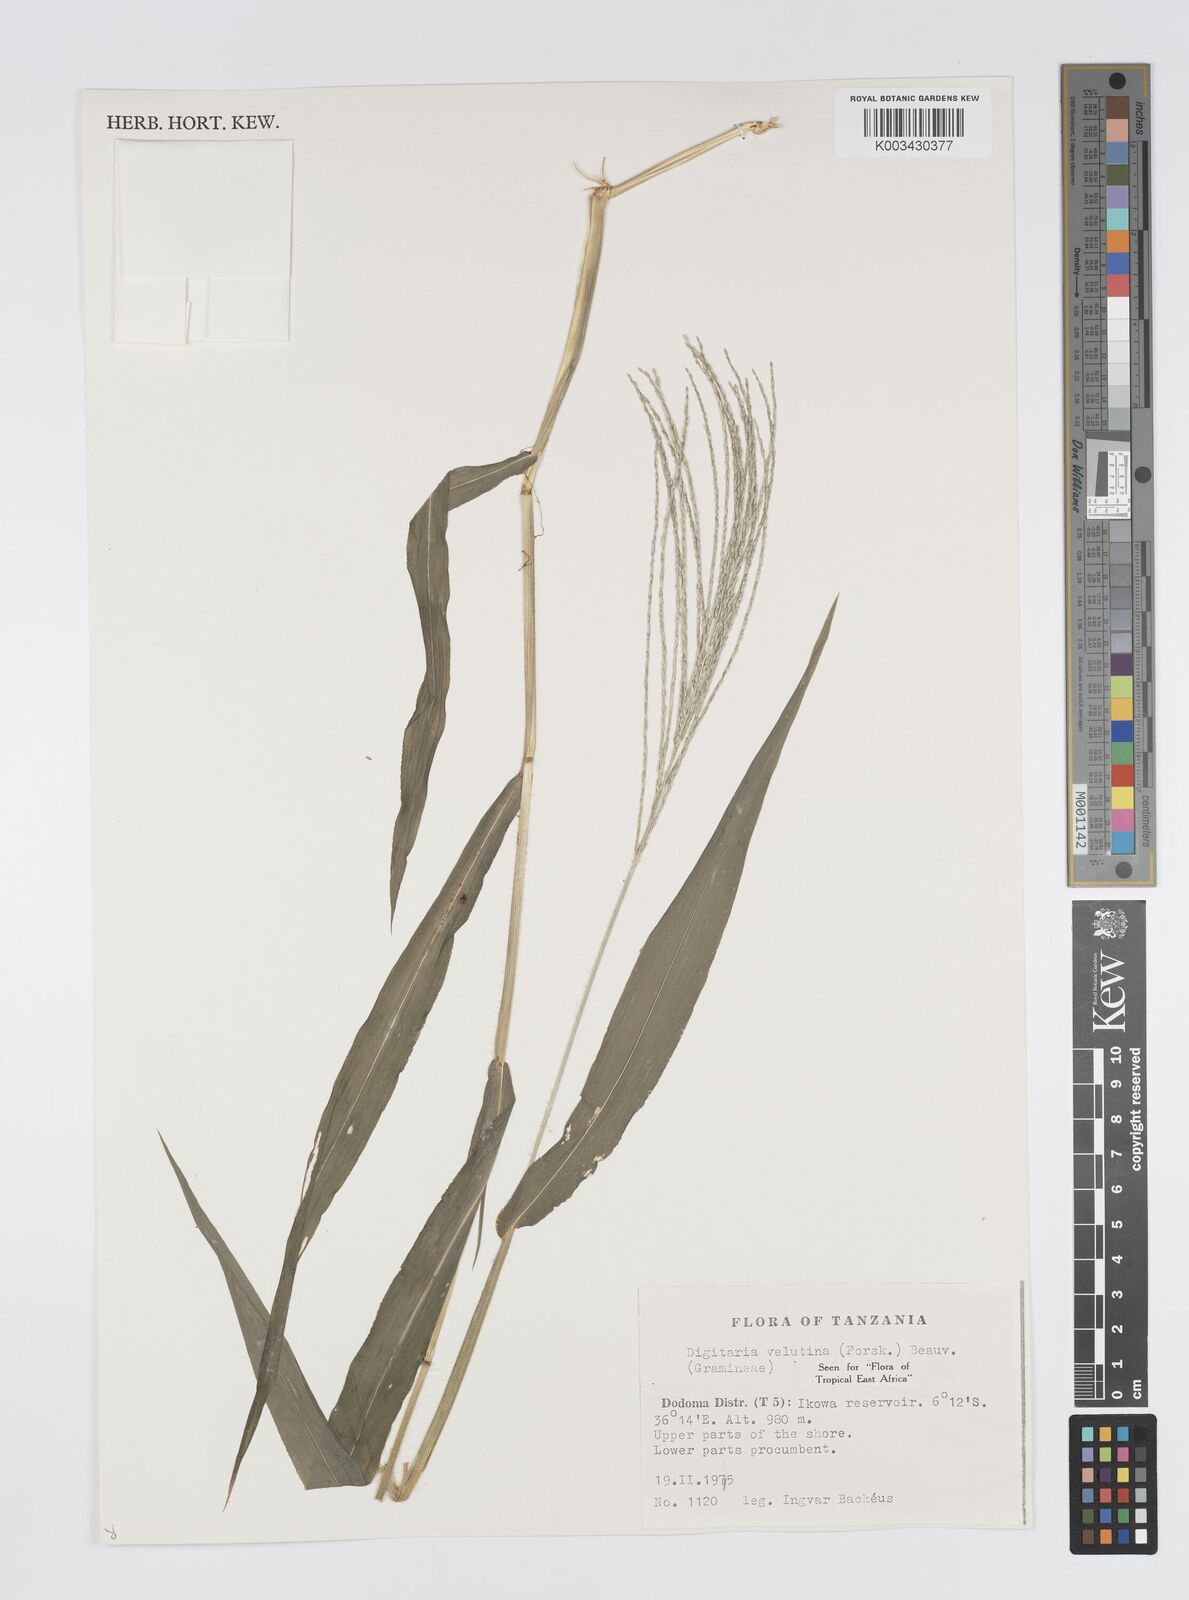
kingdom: Plantae
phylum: Tracheophyta
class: Liliopsida
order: Poales
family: Poaceae
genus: Digitaria
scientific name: Digitaria velutina
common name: Long-plume finger grass
